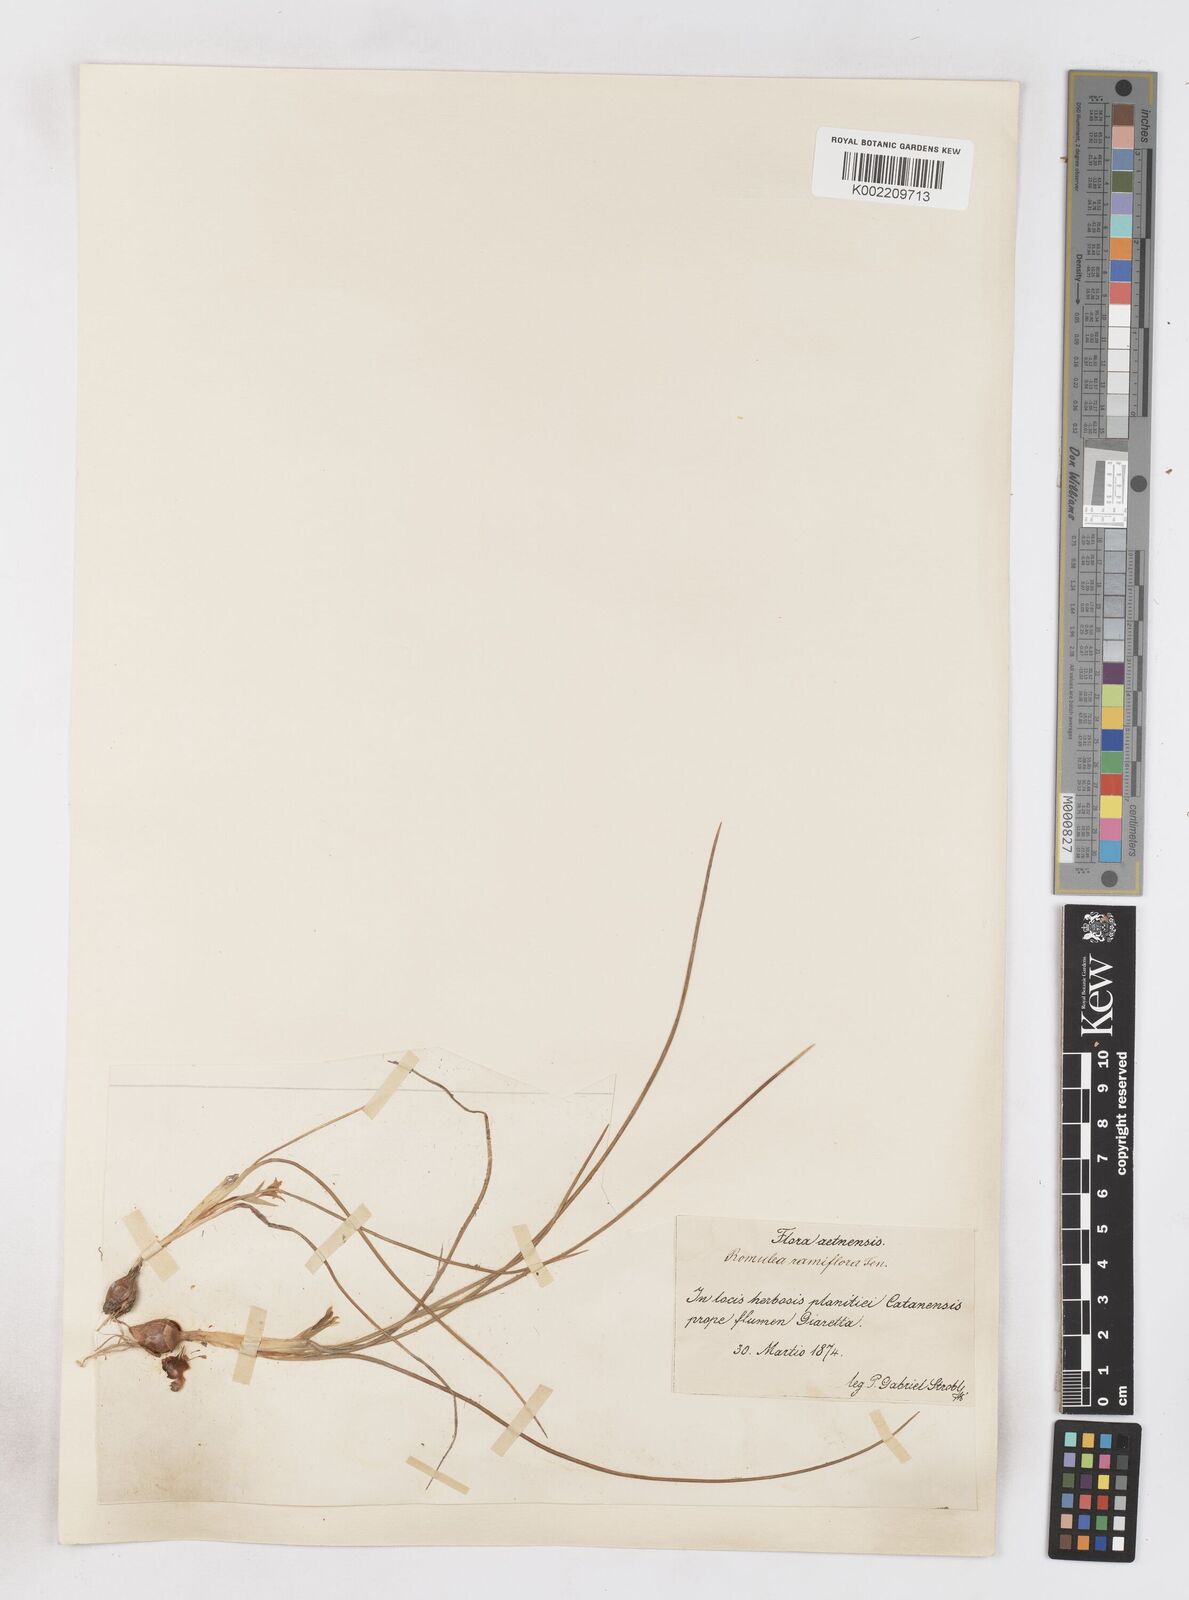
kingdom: Plantae
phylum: Tracheophyta
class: Liliopsida
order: Asparagales
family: Iridaceae
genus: Romulea
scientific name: Romulea ramiflora
